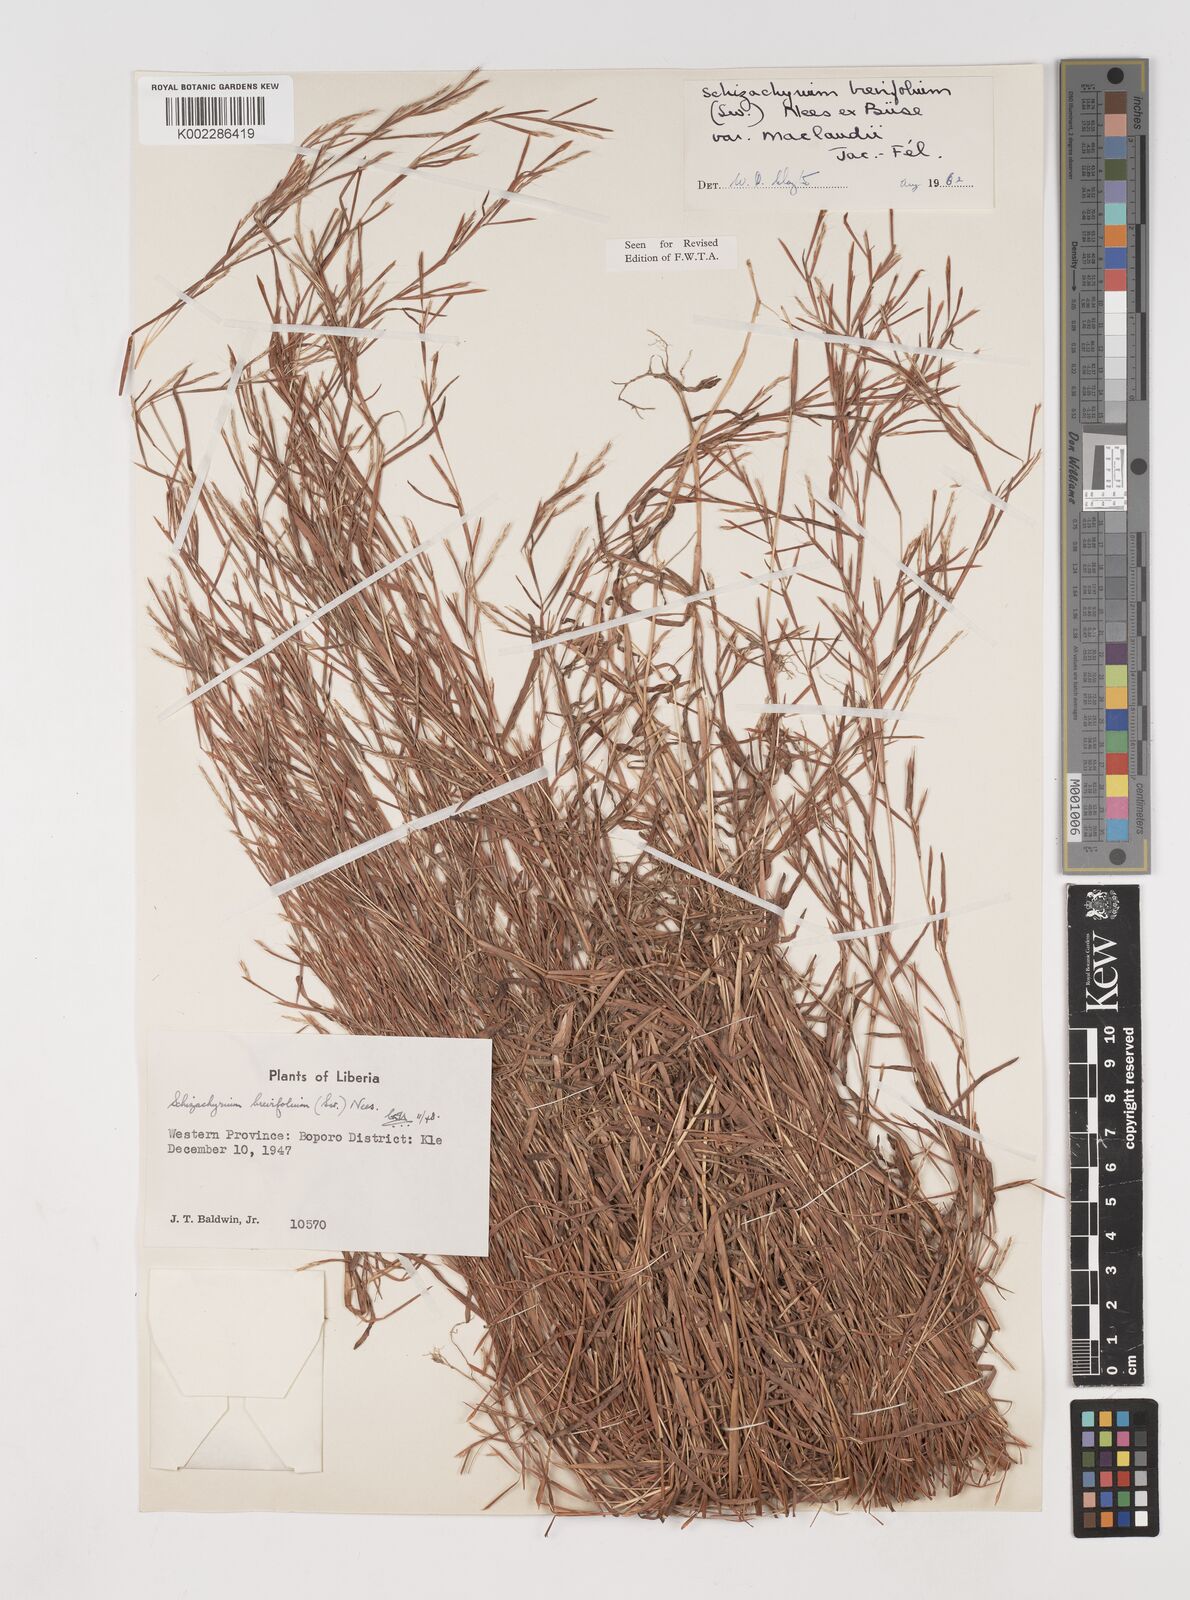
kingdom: Plantae
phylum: Tracheophyta
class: Liliopsida
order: Poales
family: Poaceae
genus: Schizachyrium
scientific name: Schizachyrium maclaudii
